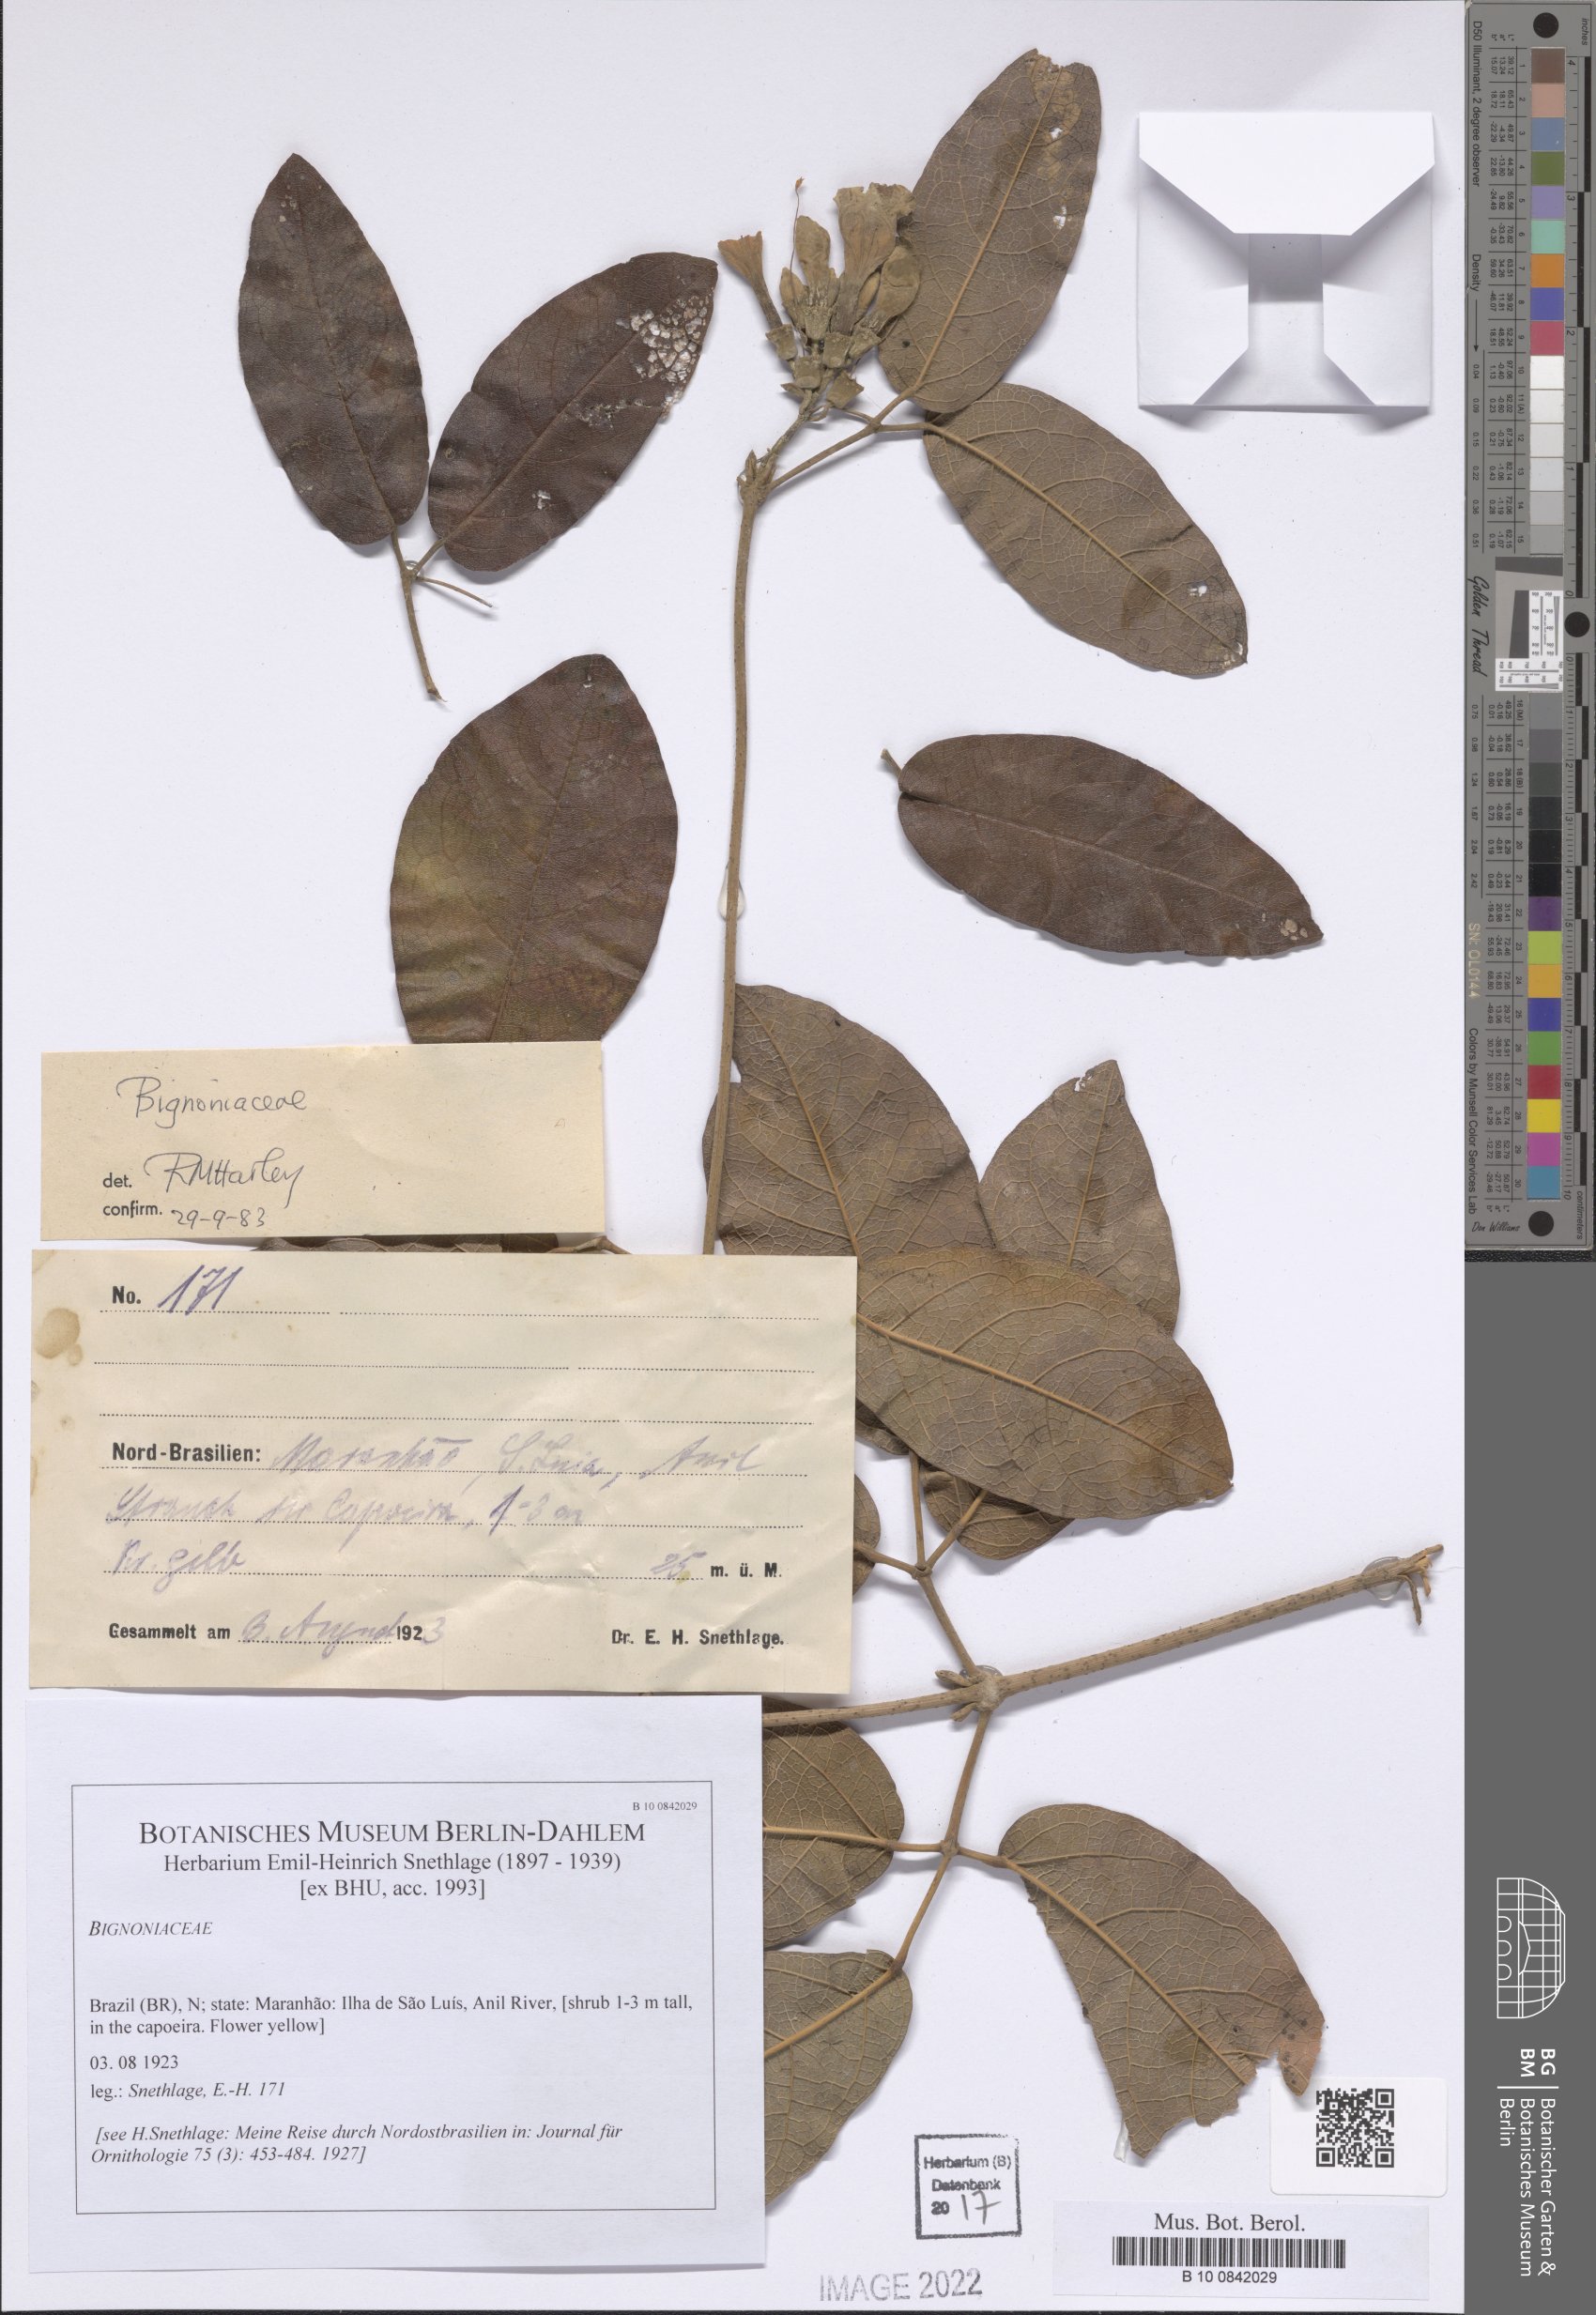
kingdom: Plantae
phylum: Tracheophyta
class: Magnoliopsida
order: Lamiales
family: Bignoniaceae
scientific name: Bignoniaceae
